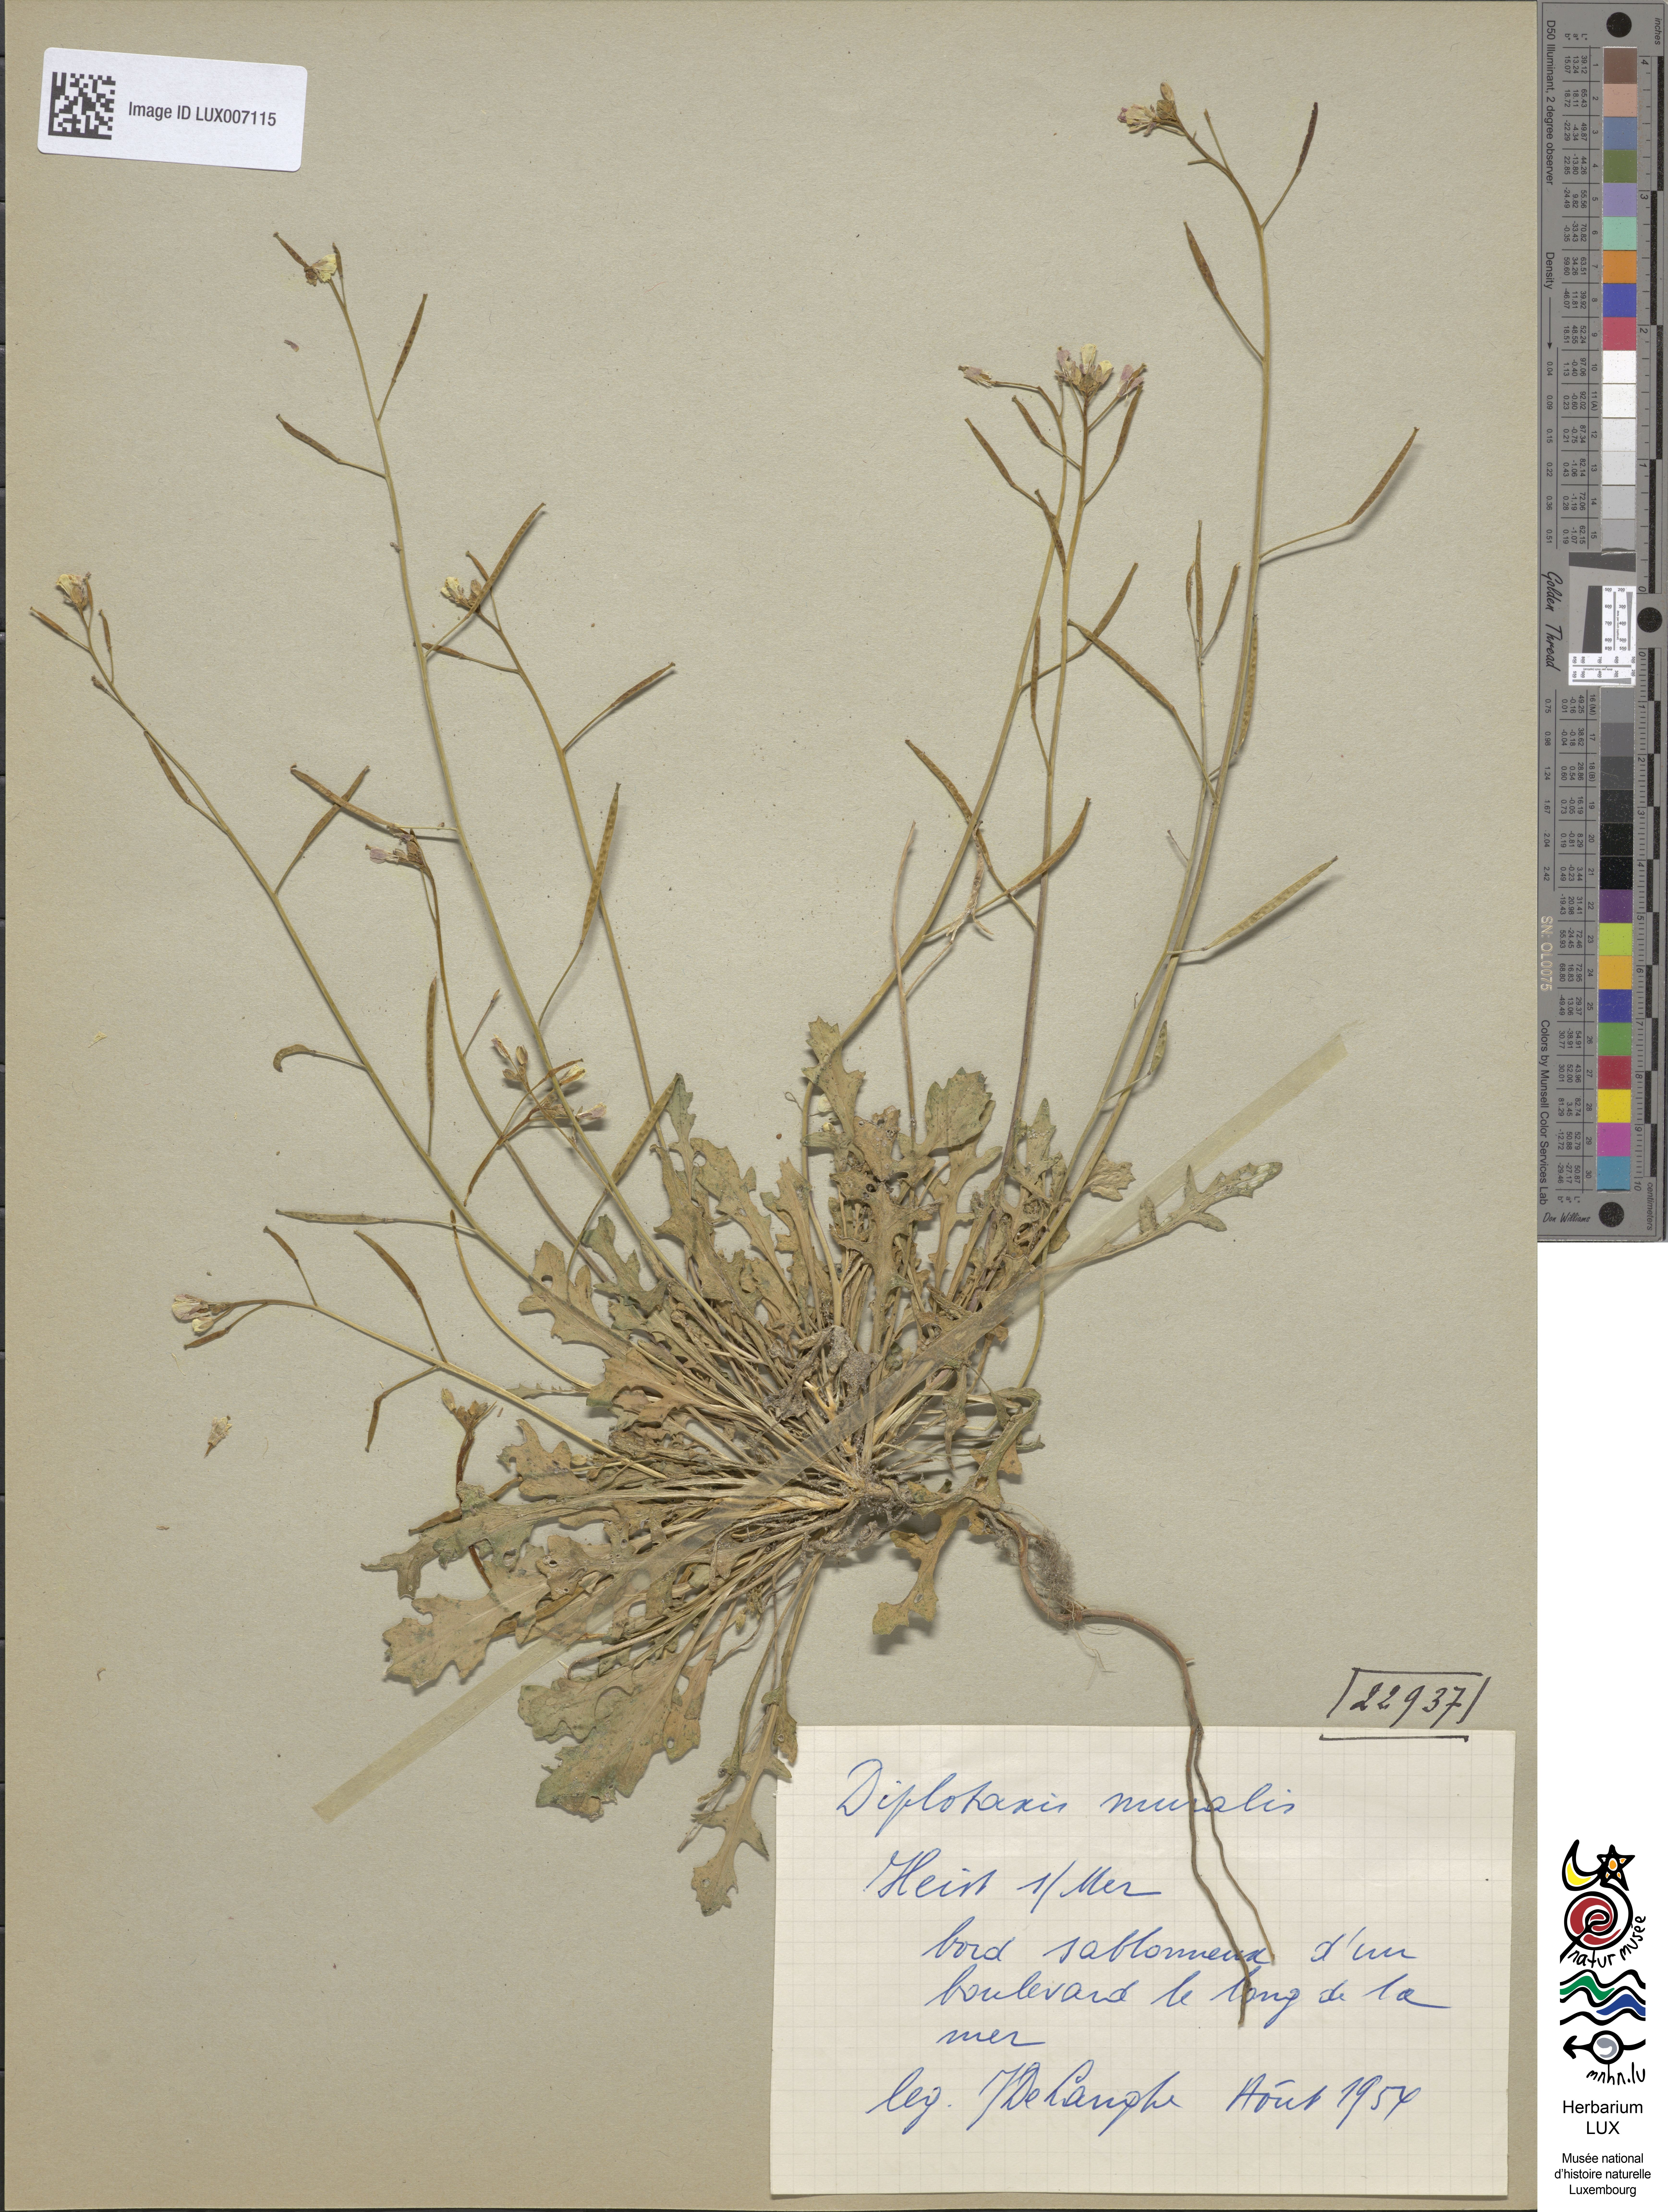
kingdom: Plantae
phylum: Tracheophyta
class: Magnoliopsida
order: Brassicales
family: Brassicaceae
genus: Diplotaxis
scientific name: Diplotaxis muralis
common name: Annual wall-rocket
